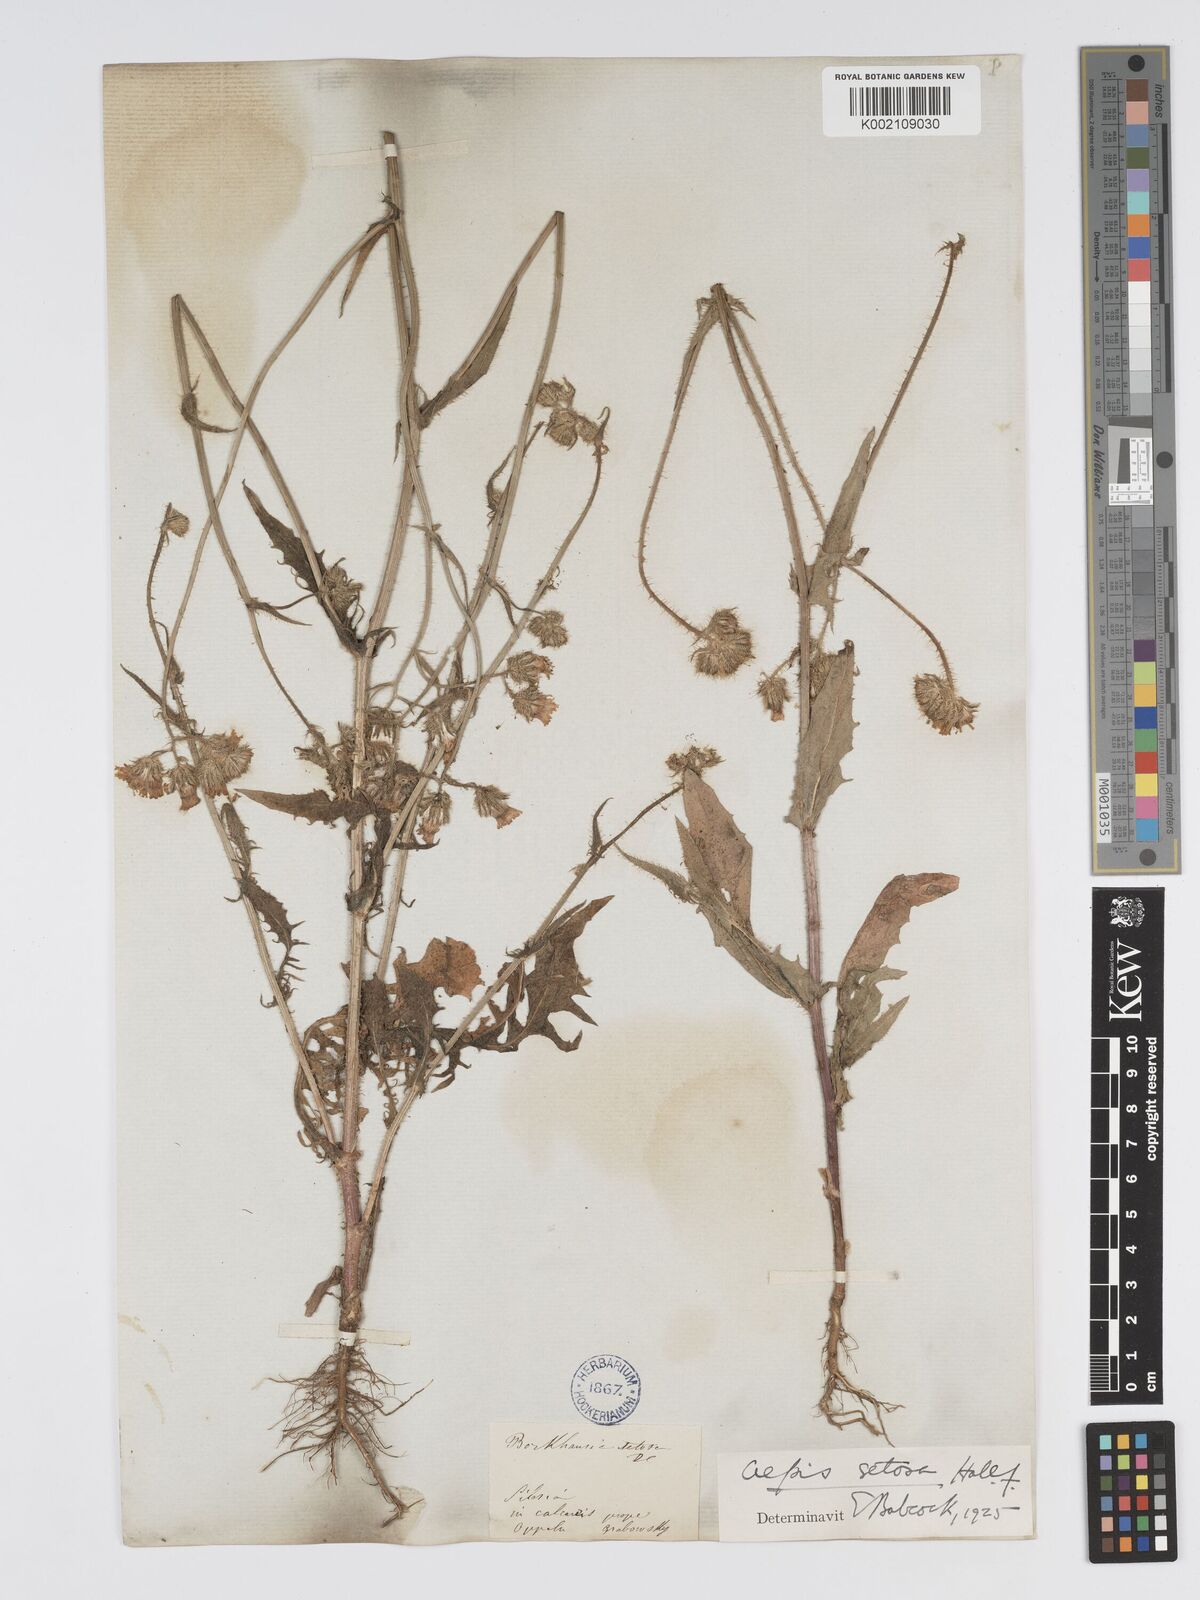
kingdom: Plantae
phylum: Tracheophyta
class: Magnoliopsida
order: Asterales
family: Asteraceae
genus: Crepis
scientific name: Crepis setosa
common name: Bristly hawk's-beard
